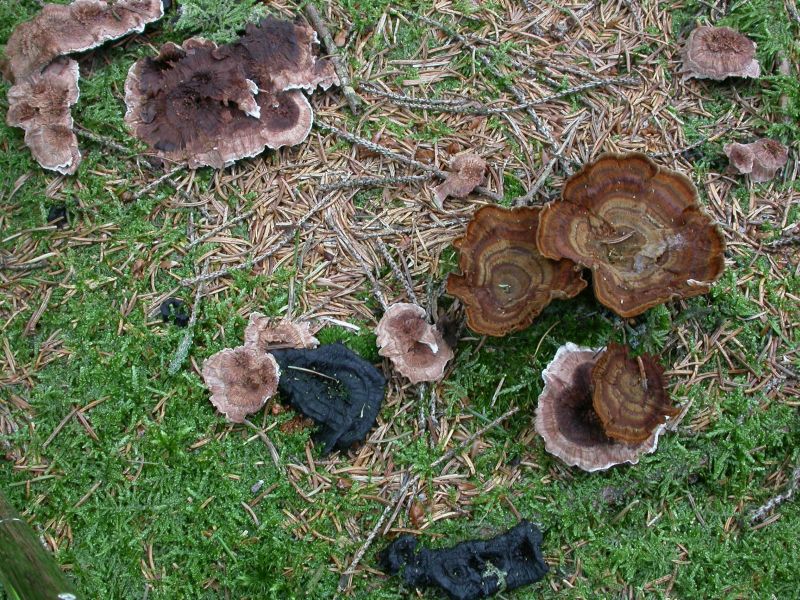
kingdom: Fungi
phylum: Basidiomycota
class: Agaricomycetes
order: Thelephorales
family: Bankeraceae
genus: Hydnellum
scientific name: Hydnellum concrescens
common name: bæltet korkpigsvamp
